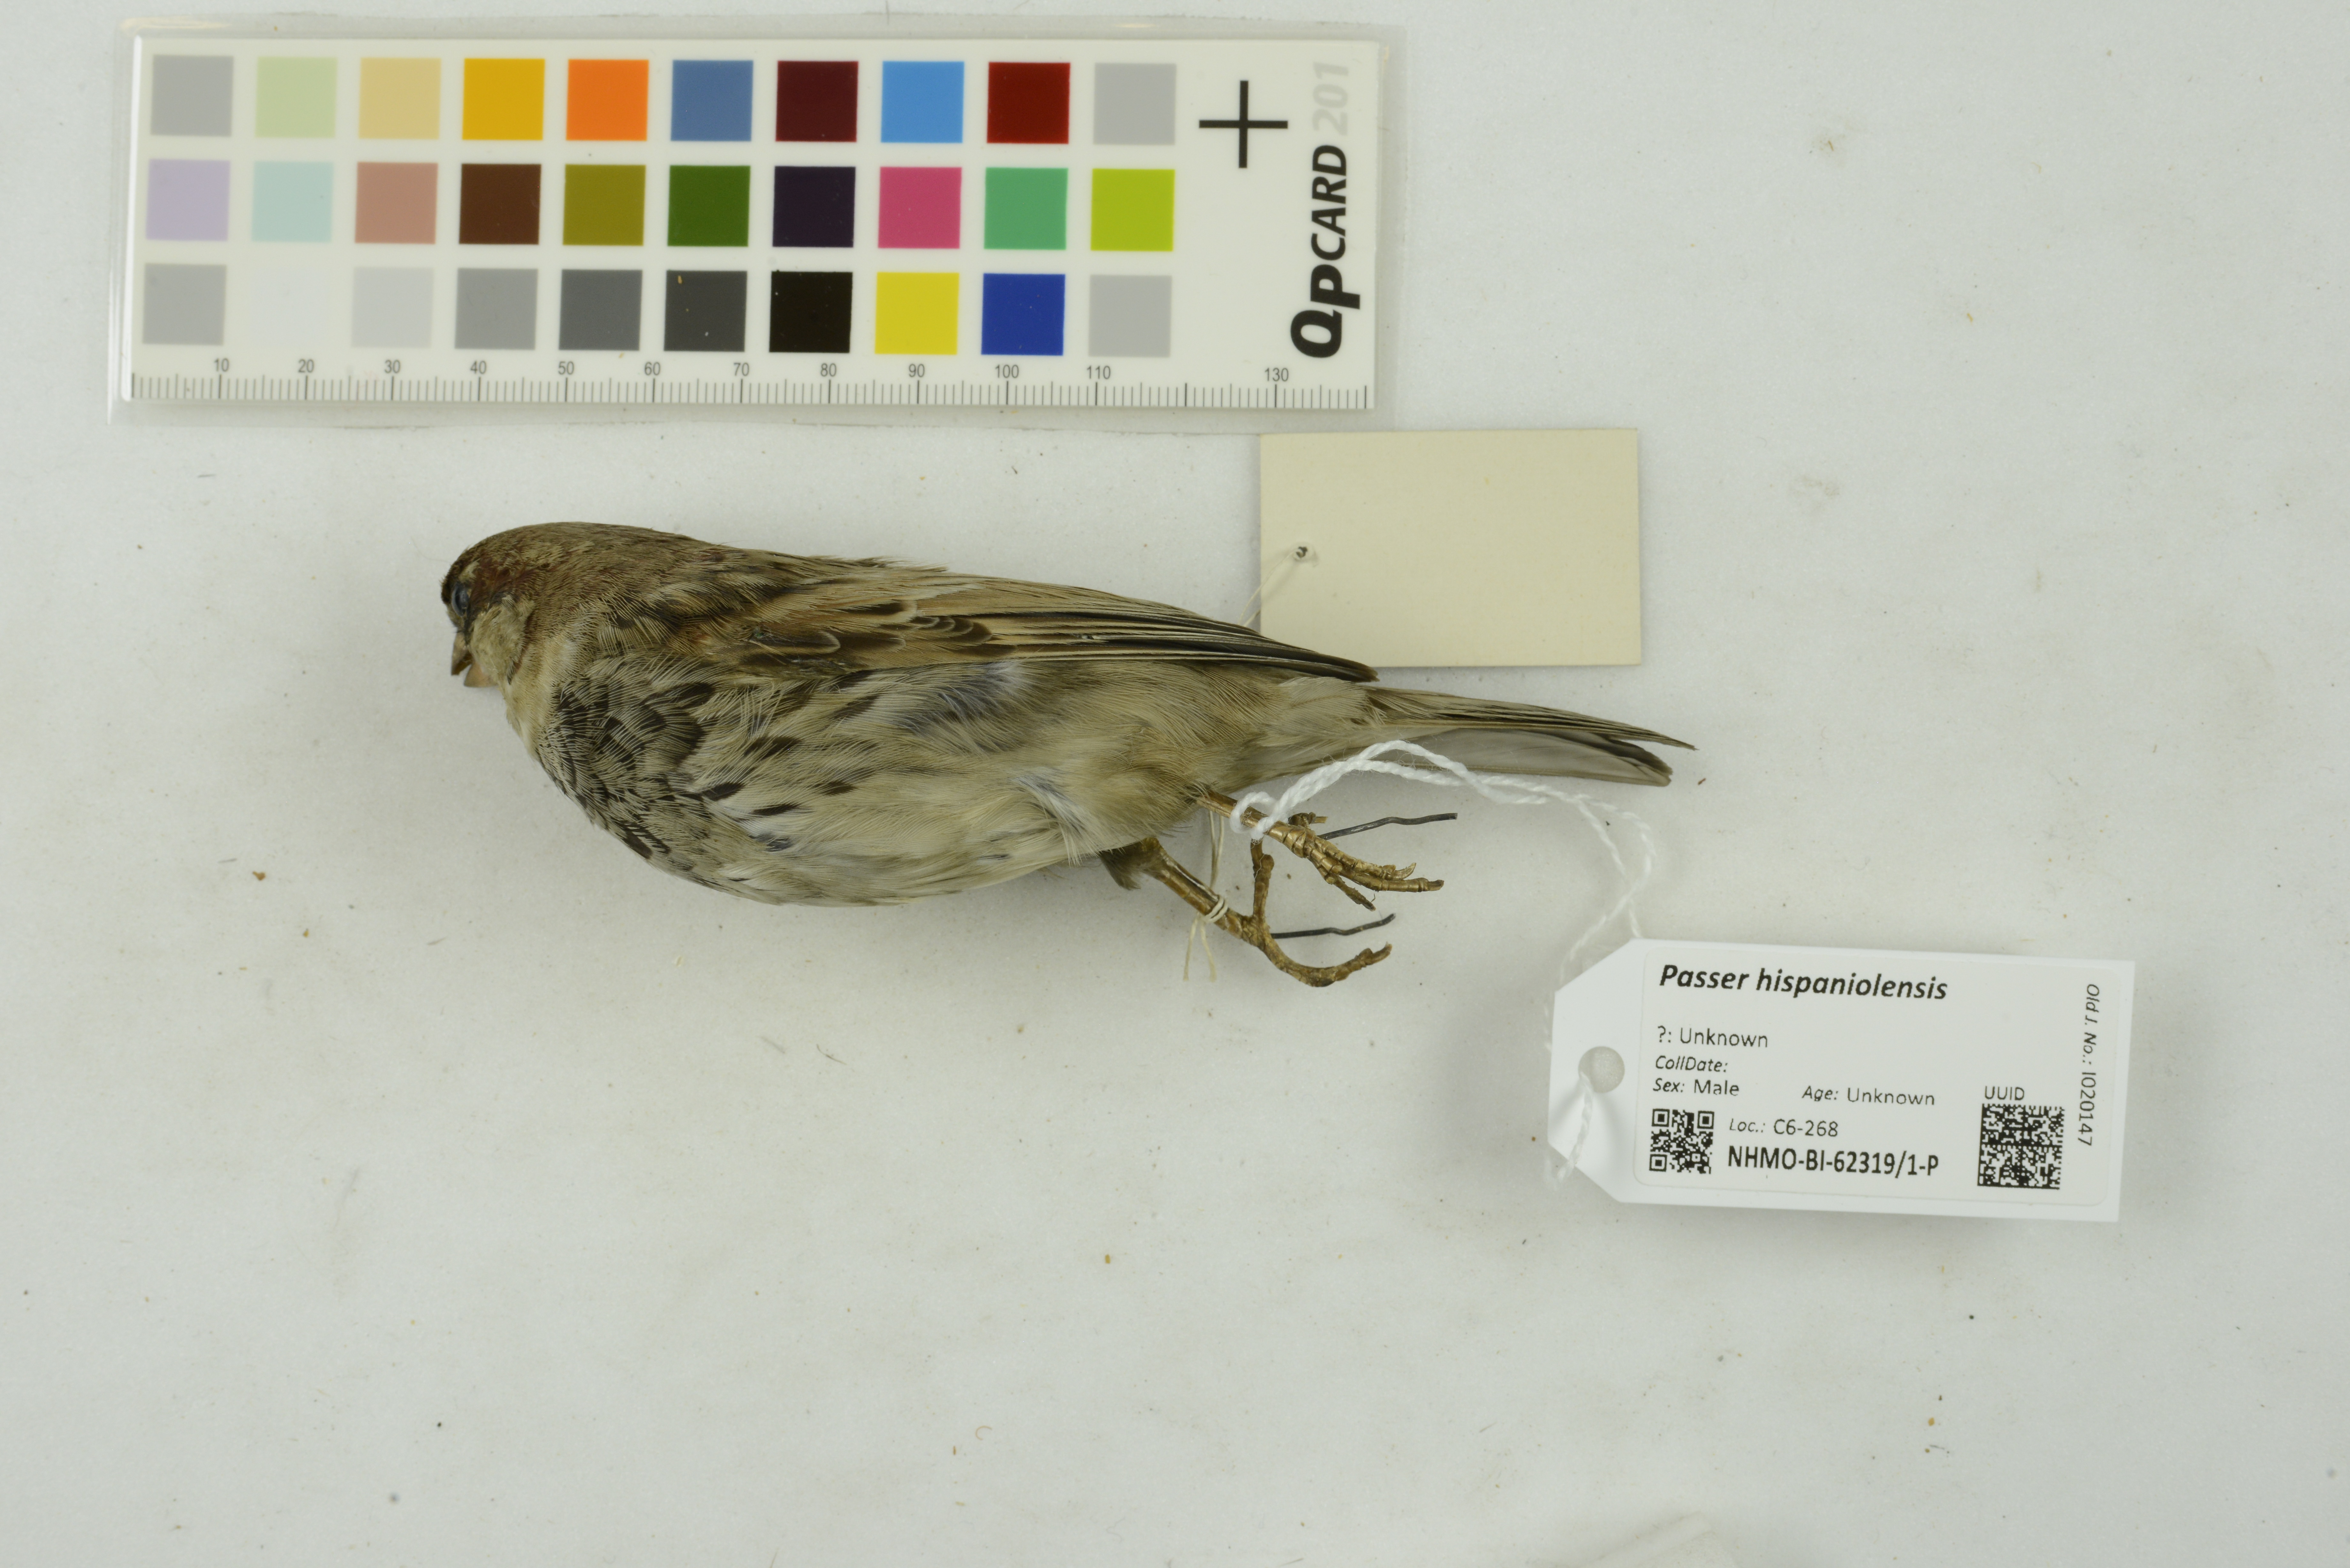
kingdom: Animalia
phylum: Chordata
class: Aves
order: Passeriformes
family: Passeridae
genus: Passer
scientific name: Passer hispaniolensis
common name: Spanish sparrow
